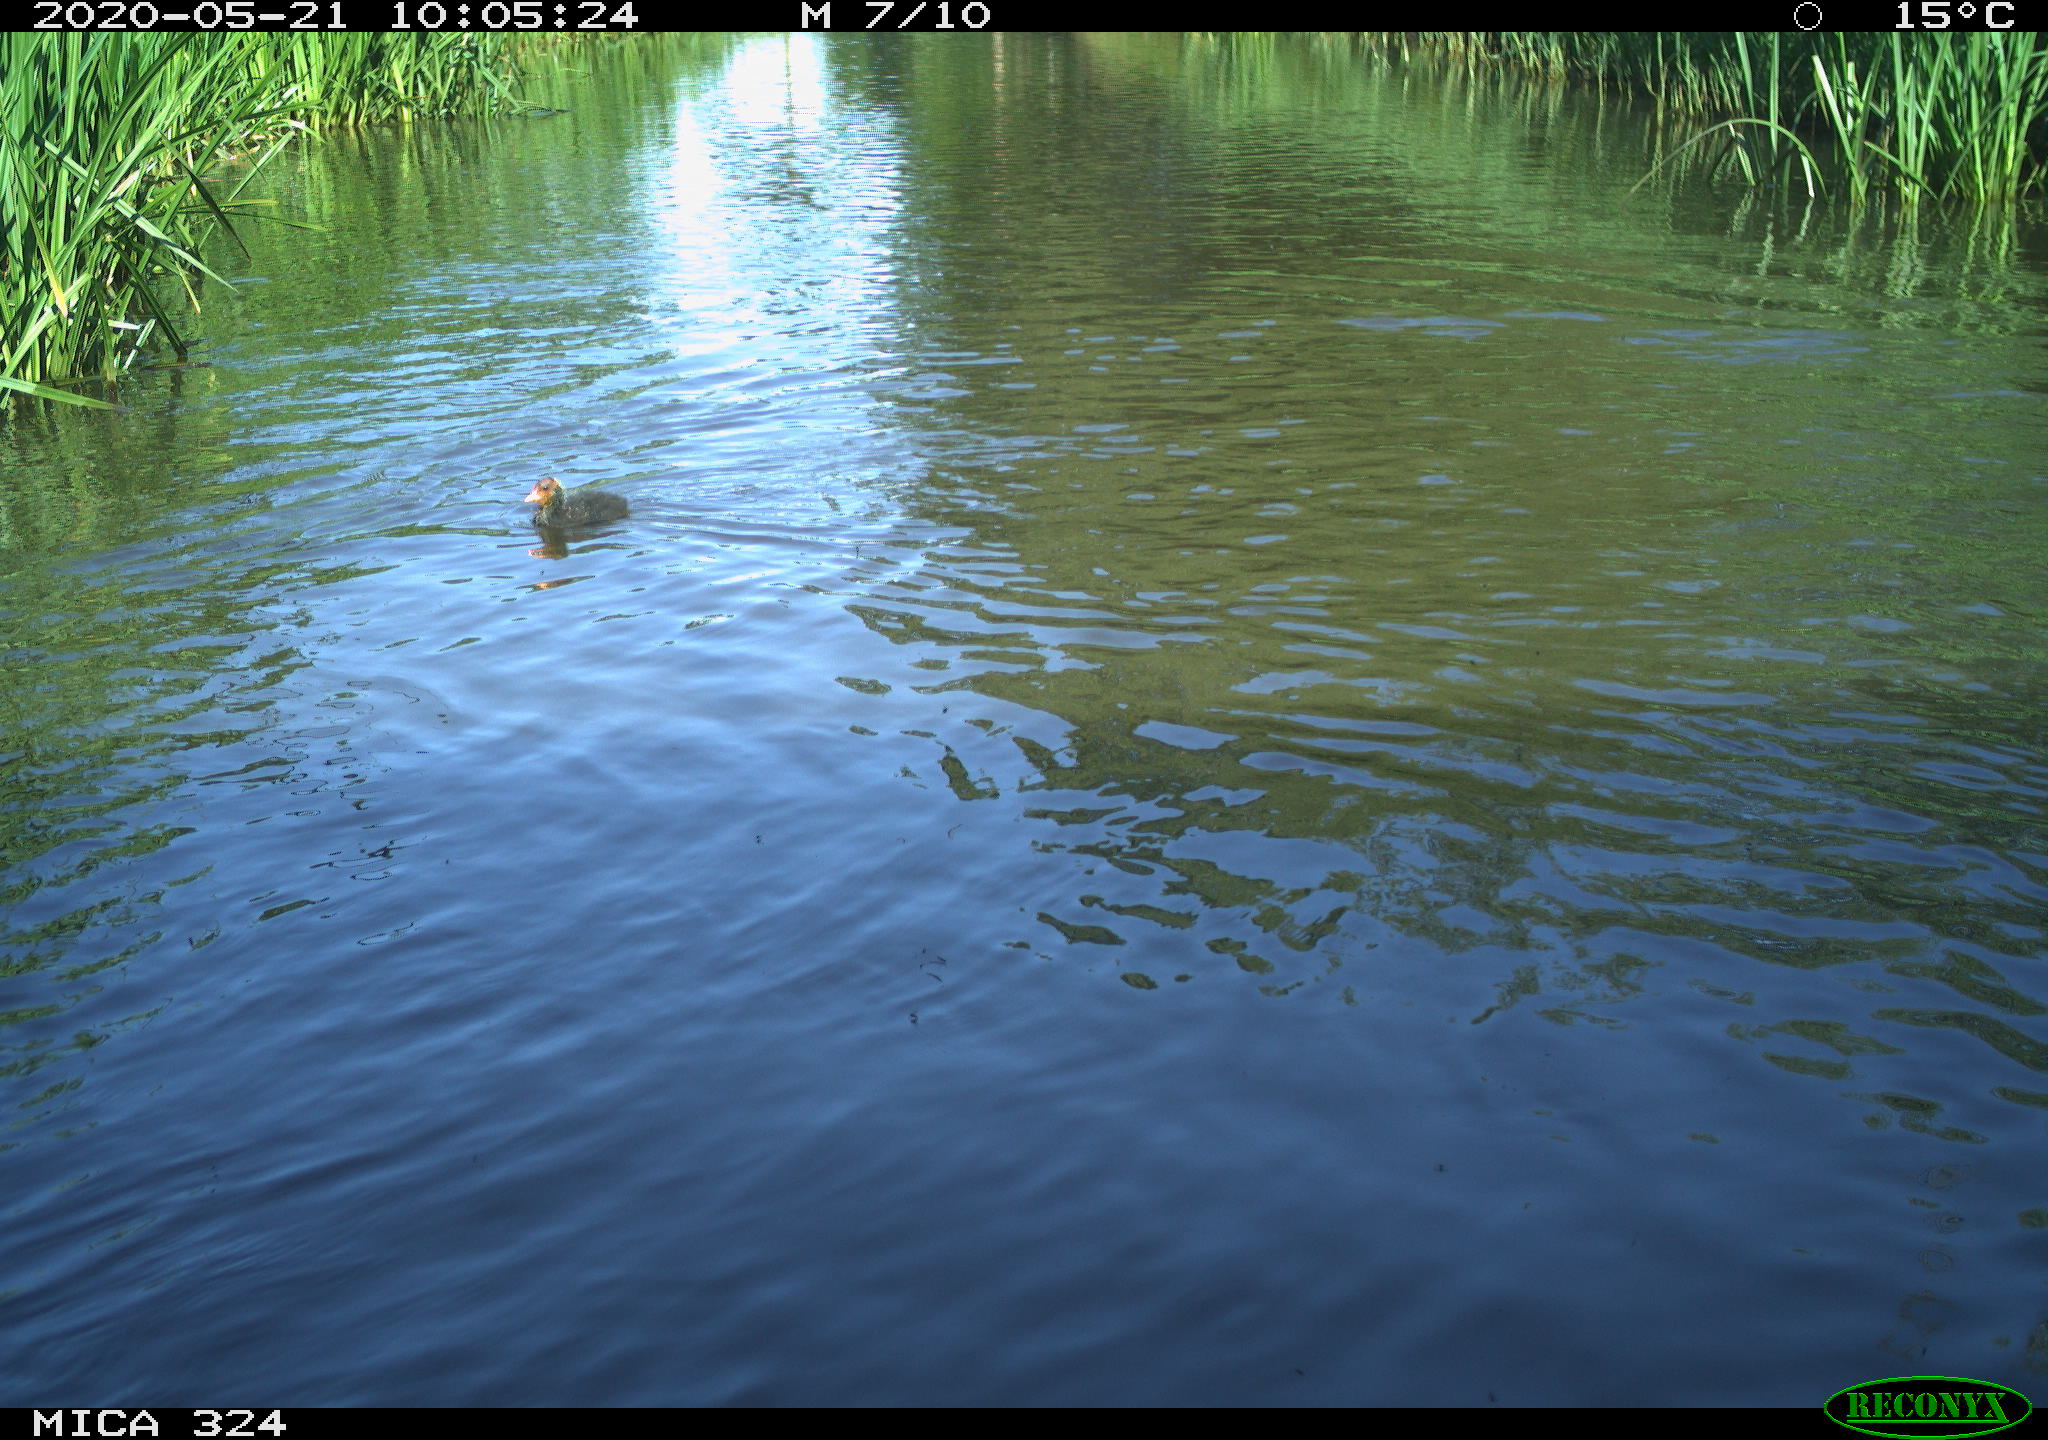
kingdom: Animalia
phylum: Chordata
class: Aves
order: Gruiformes
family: Rallidae
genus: Fulica
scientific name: Fulica atra
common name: Eurasian coot
